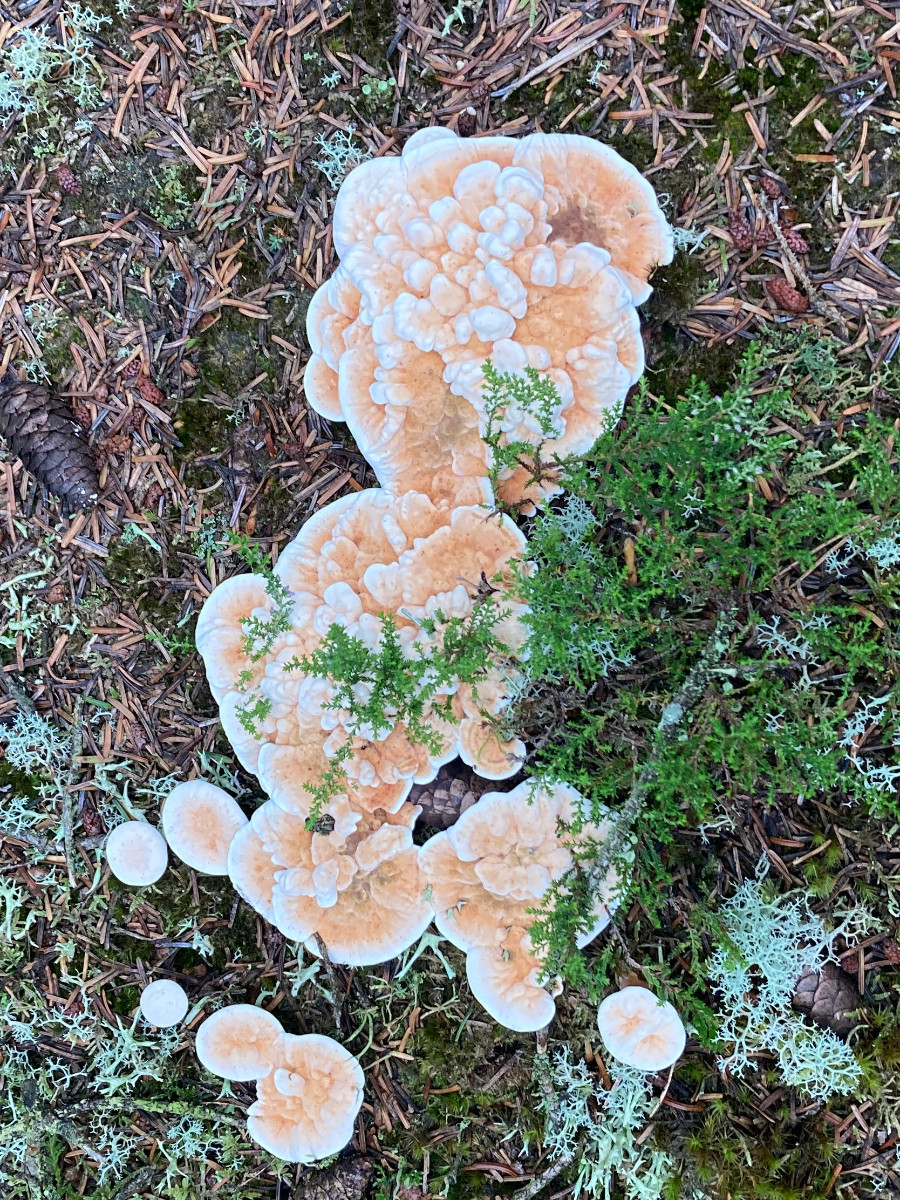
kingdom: Fungi
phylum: Basidiomycota
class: Agaricomycetes
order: Thelephorales
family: Bankeraceae
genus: Hydnellum
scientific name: Hydnellum aurantiacum
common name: orange korkpigsvamp
